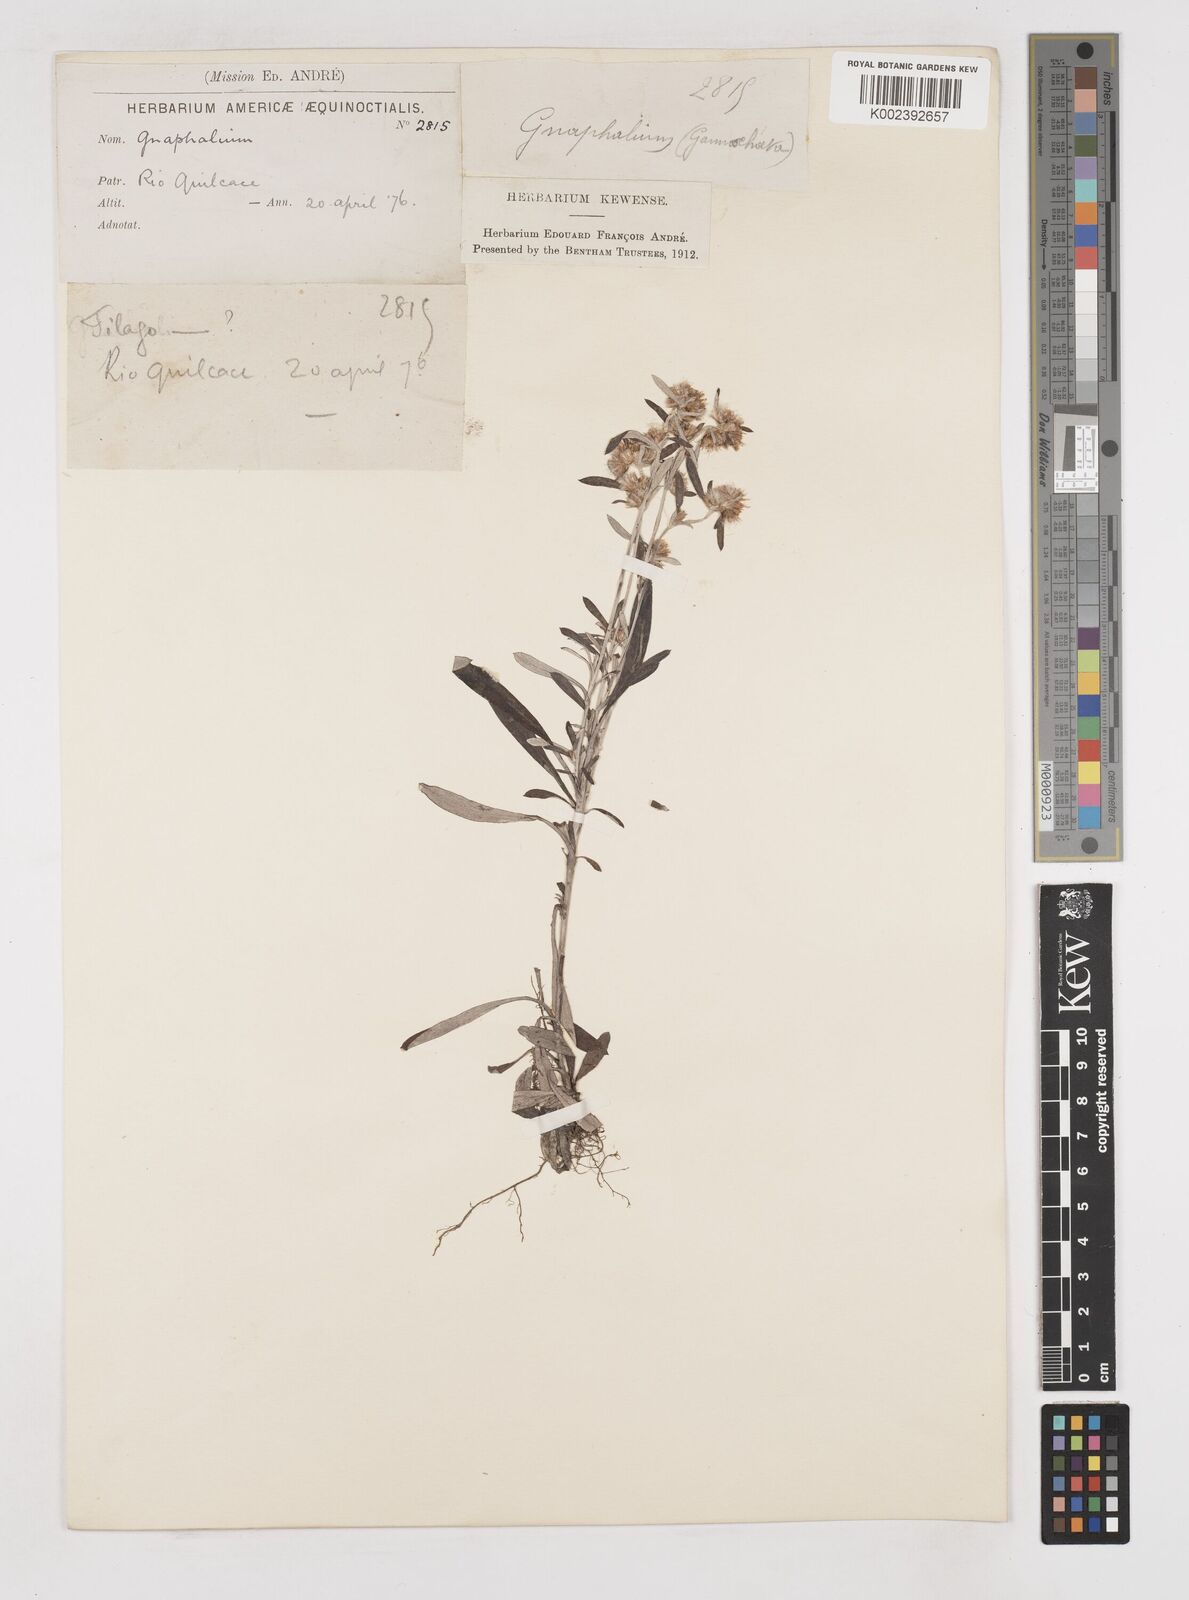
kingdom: Plantae
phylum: Tracheophyta
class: Magnoliopsida
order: Asterales
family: Asteraceae
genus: Gnaphalium
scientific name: Gnaphalium
